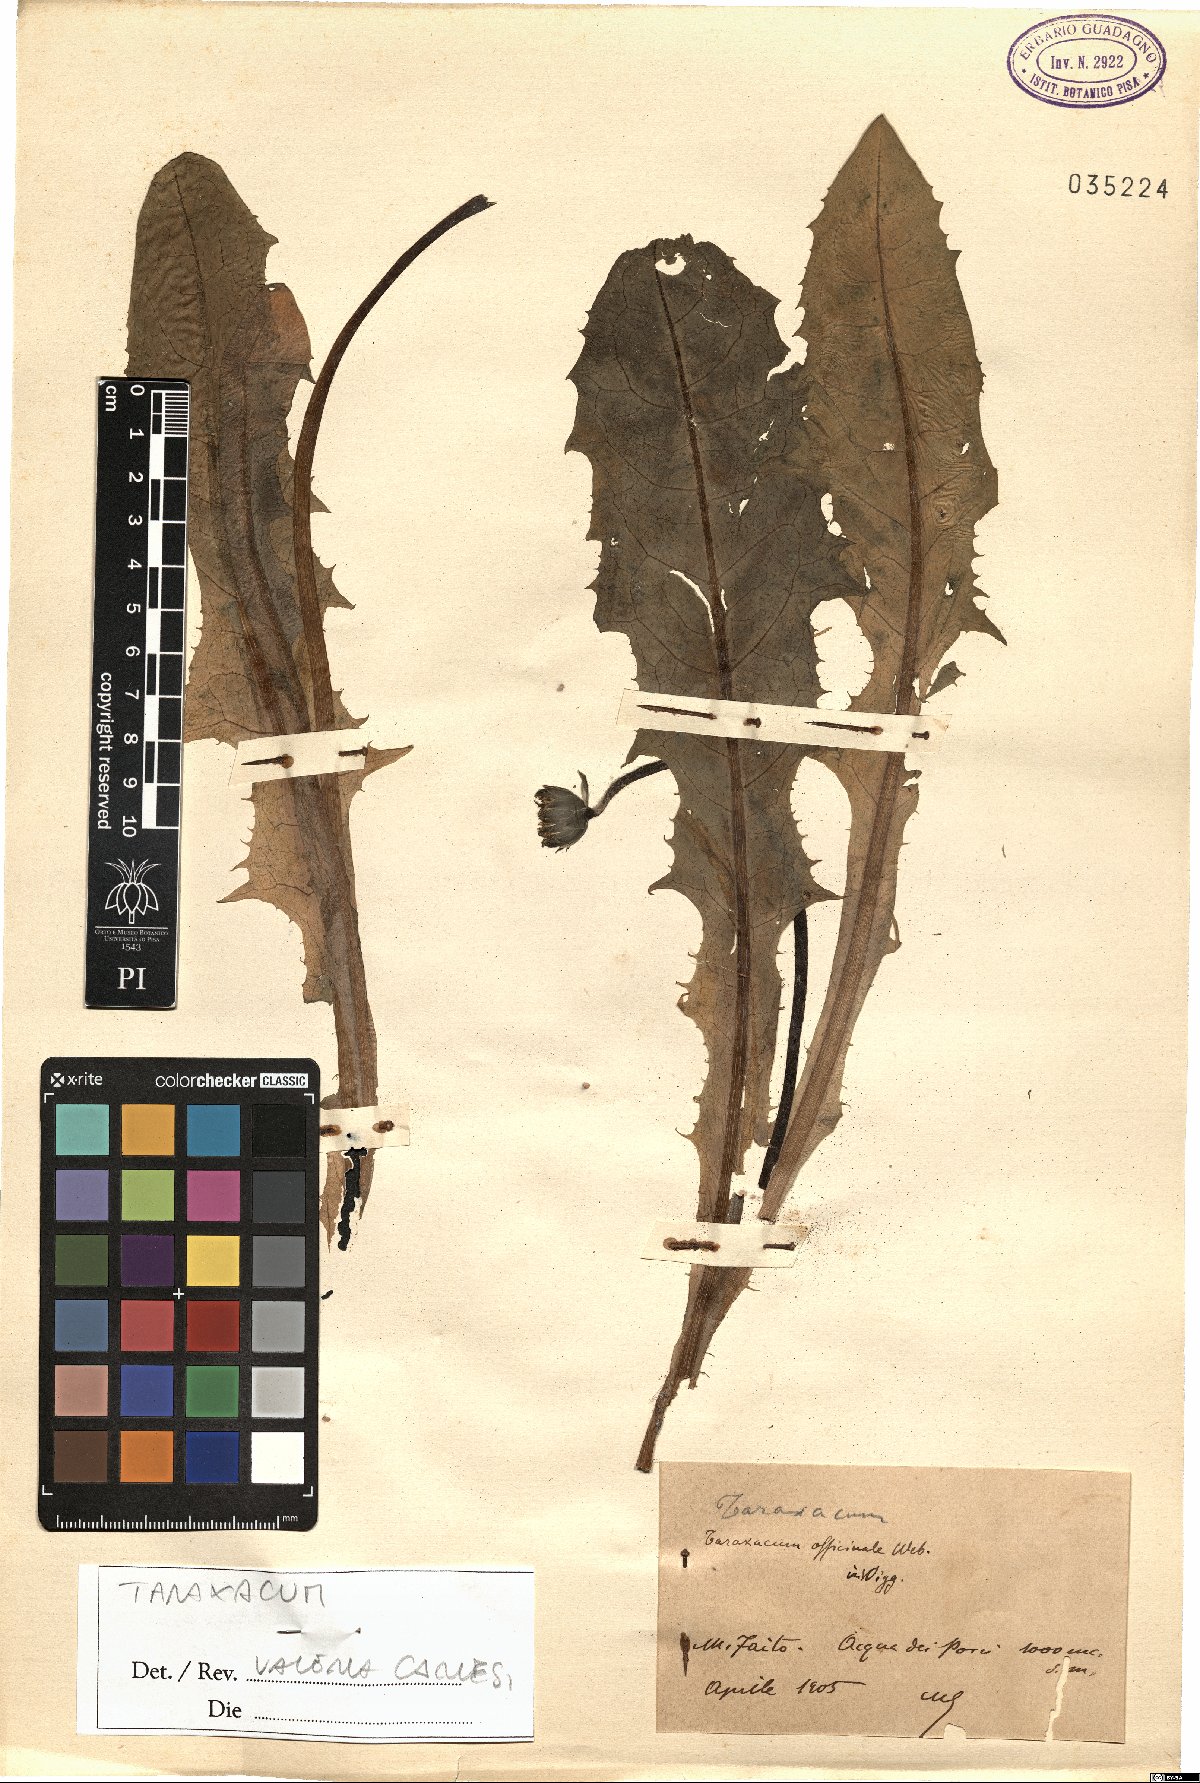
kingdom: Plantae
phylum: Tracheophyta
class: Magnoliopsida
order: Asterales
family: Asteraceae
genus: Taraxacum
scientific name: Taraxacum
